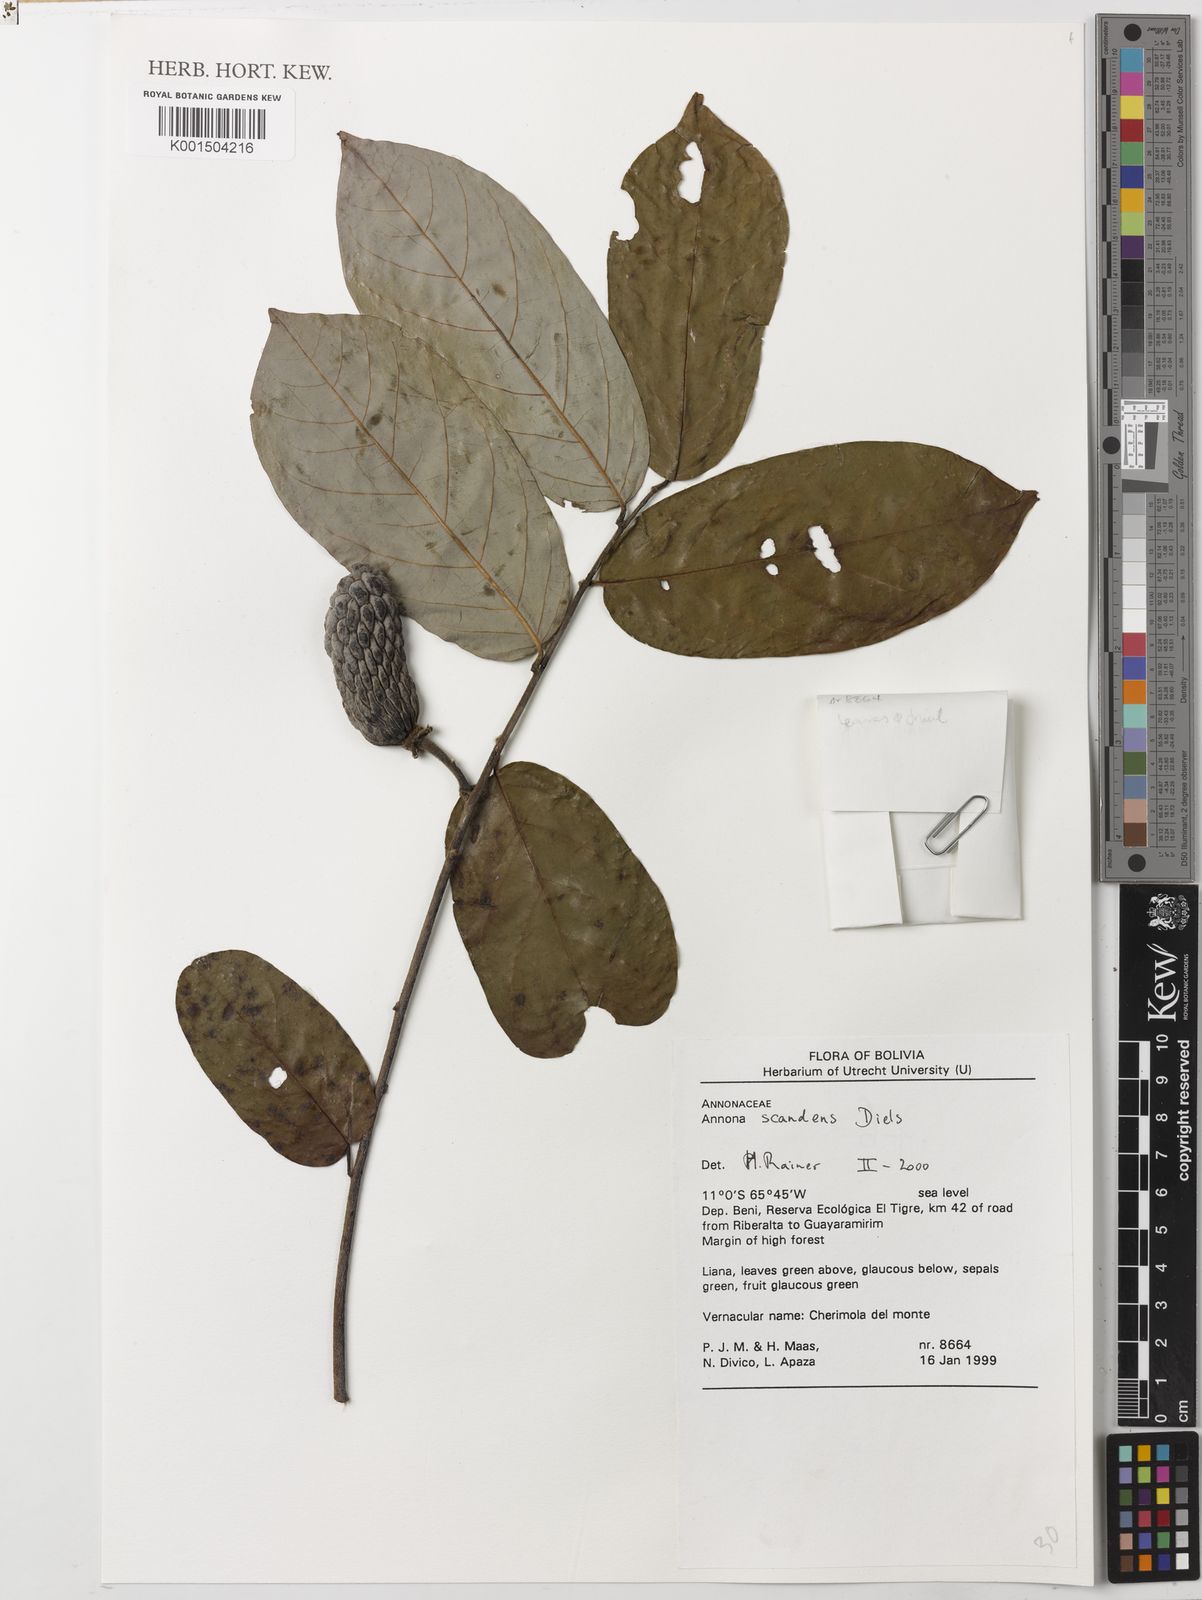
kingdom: Plantae
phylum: Tracheophyta
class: Magnoliopsida
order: Magnoliales
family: Annonaceae
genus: Annona
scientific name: Annona scandens
